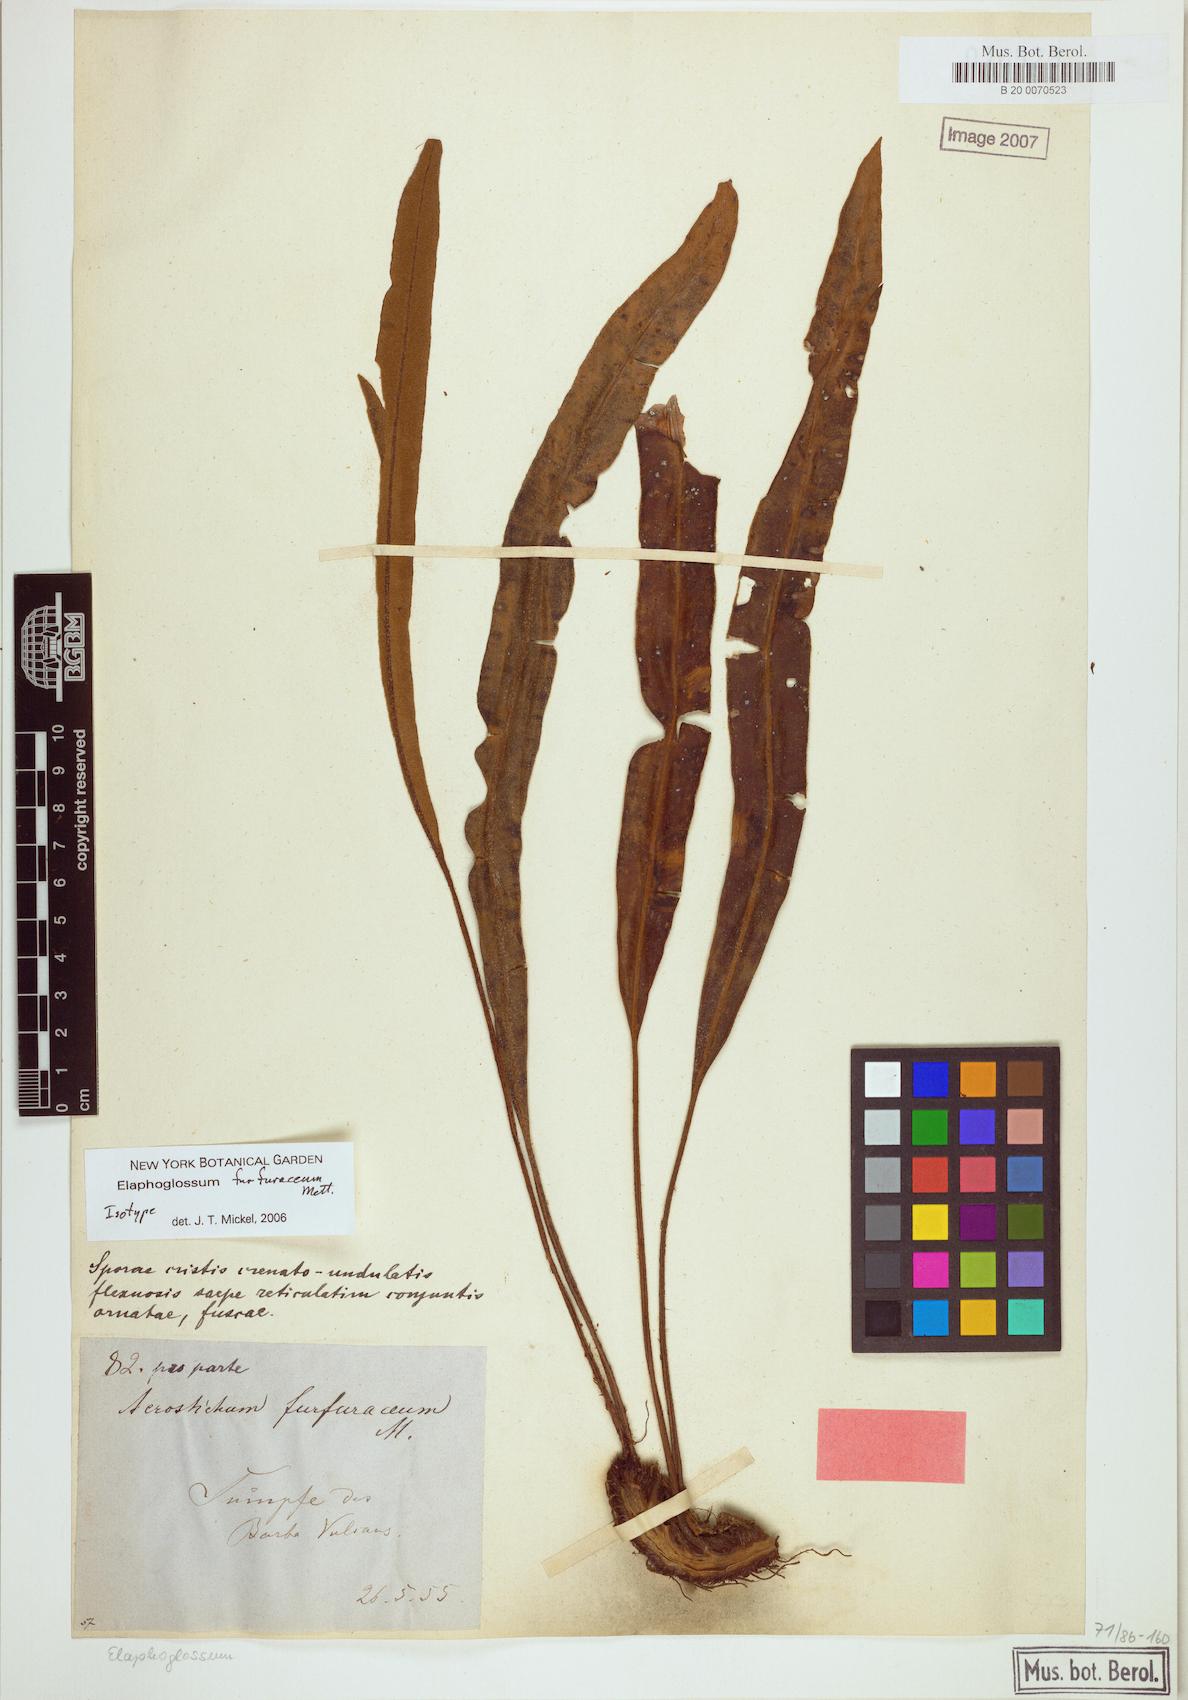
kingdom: Plantae
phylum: Tracheophyta
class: Polypodiopsida
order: Polypodiales
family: Dryopteridaceae
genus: Elaphoglossum
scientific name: Elaphoglossum furfuraceum
